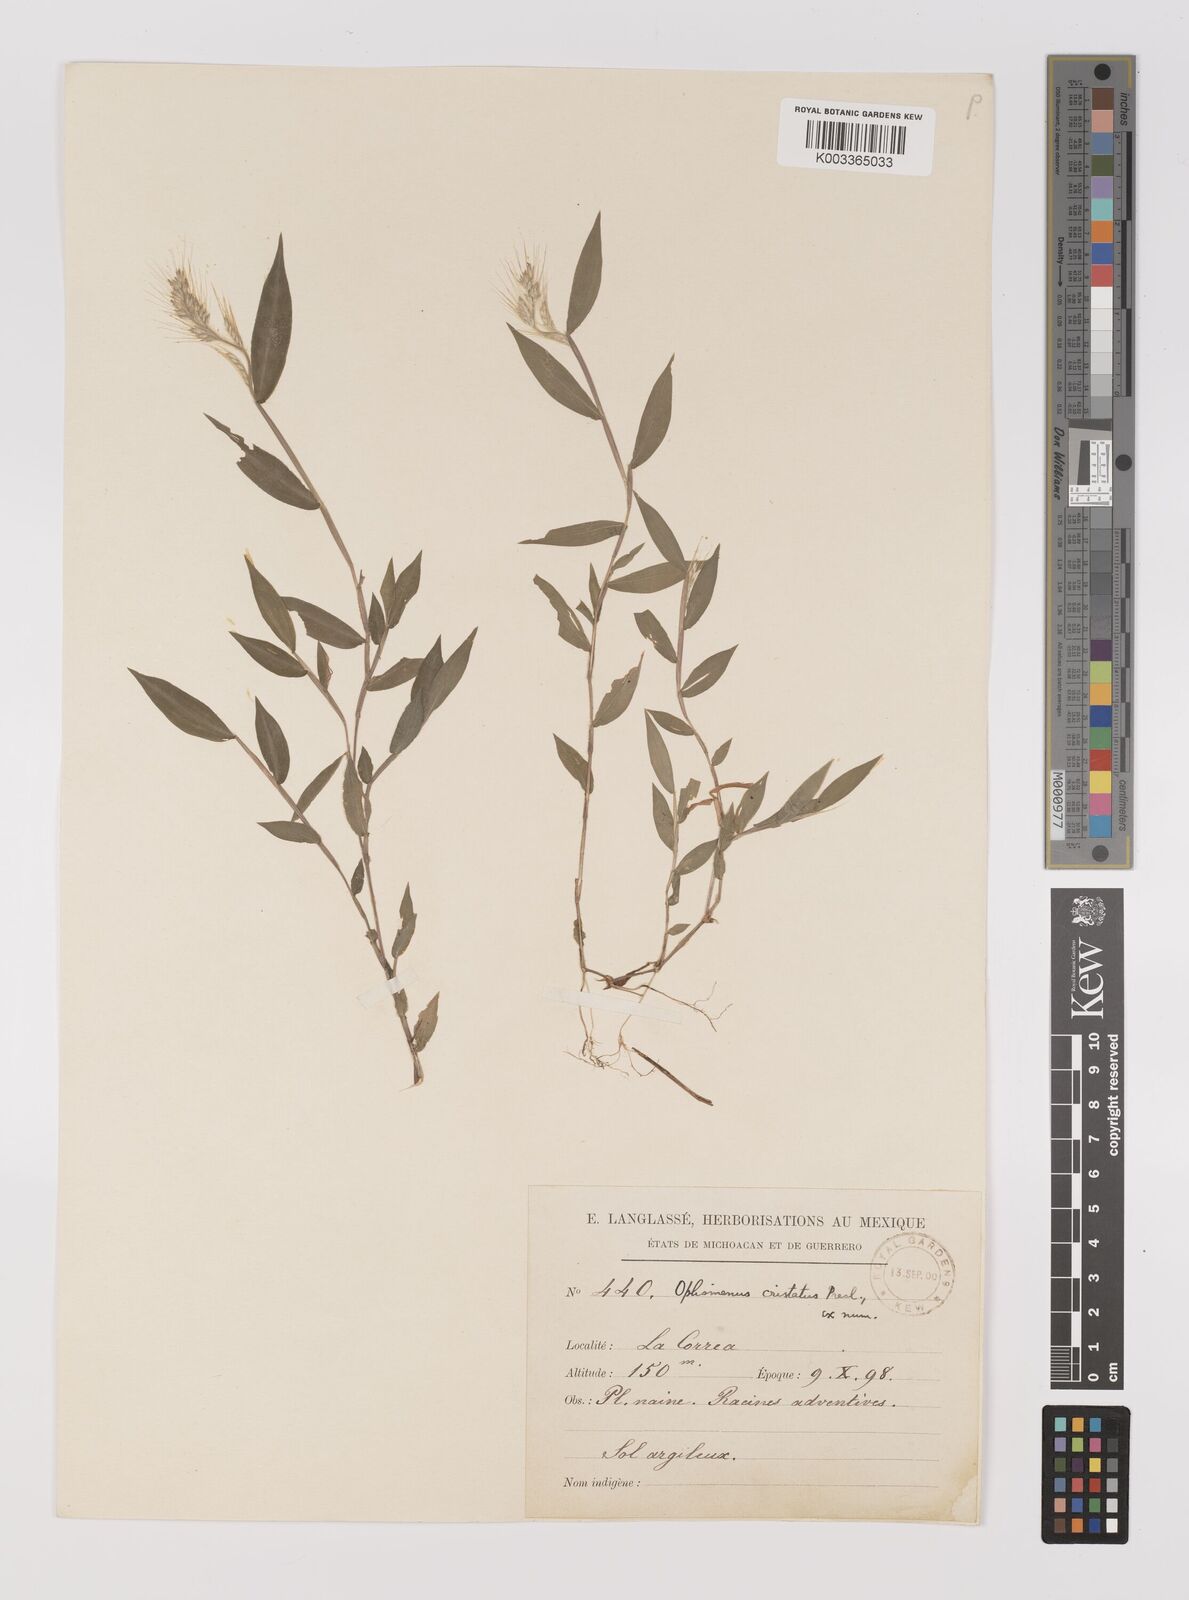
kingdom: Plantae
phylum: Tracheophyta
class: Liliopsida
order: Poales
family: Poaceae
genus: Oplismenus
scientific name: Oplismenus burmanni
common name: Burmann's basketgrass
